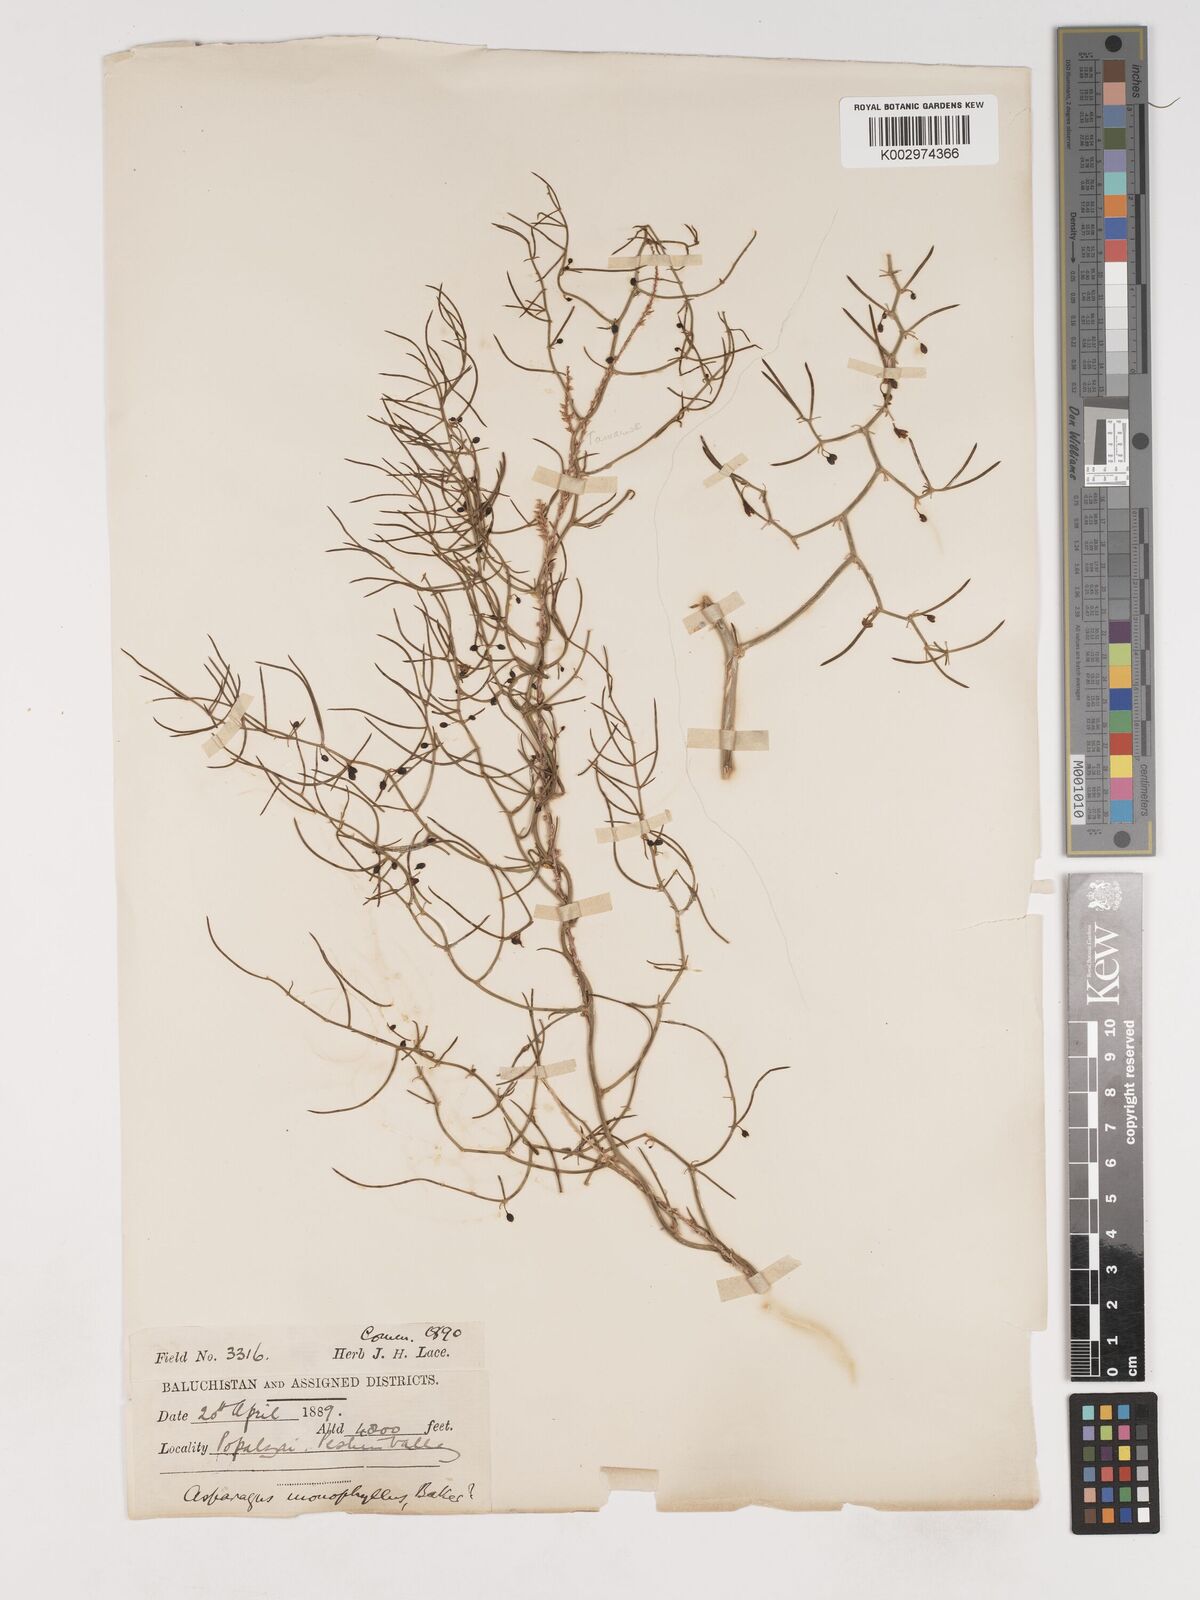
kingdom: Plantae
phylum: Tracheophyta
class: Liliopsida
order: Asparagales
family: Asparagaceae
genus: Asparagus
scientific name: Asparagus monophyllus
